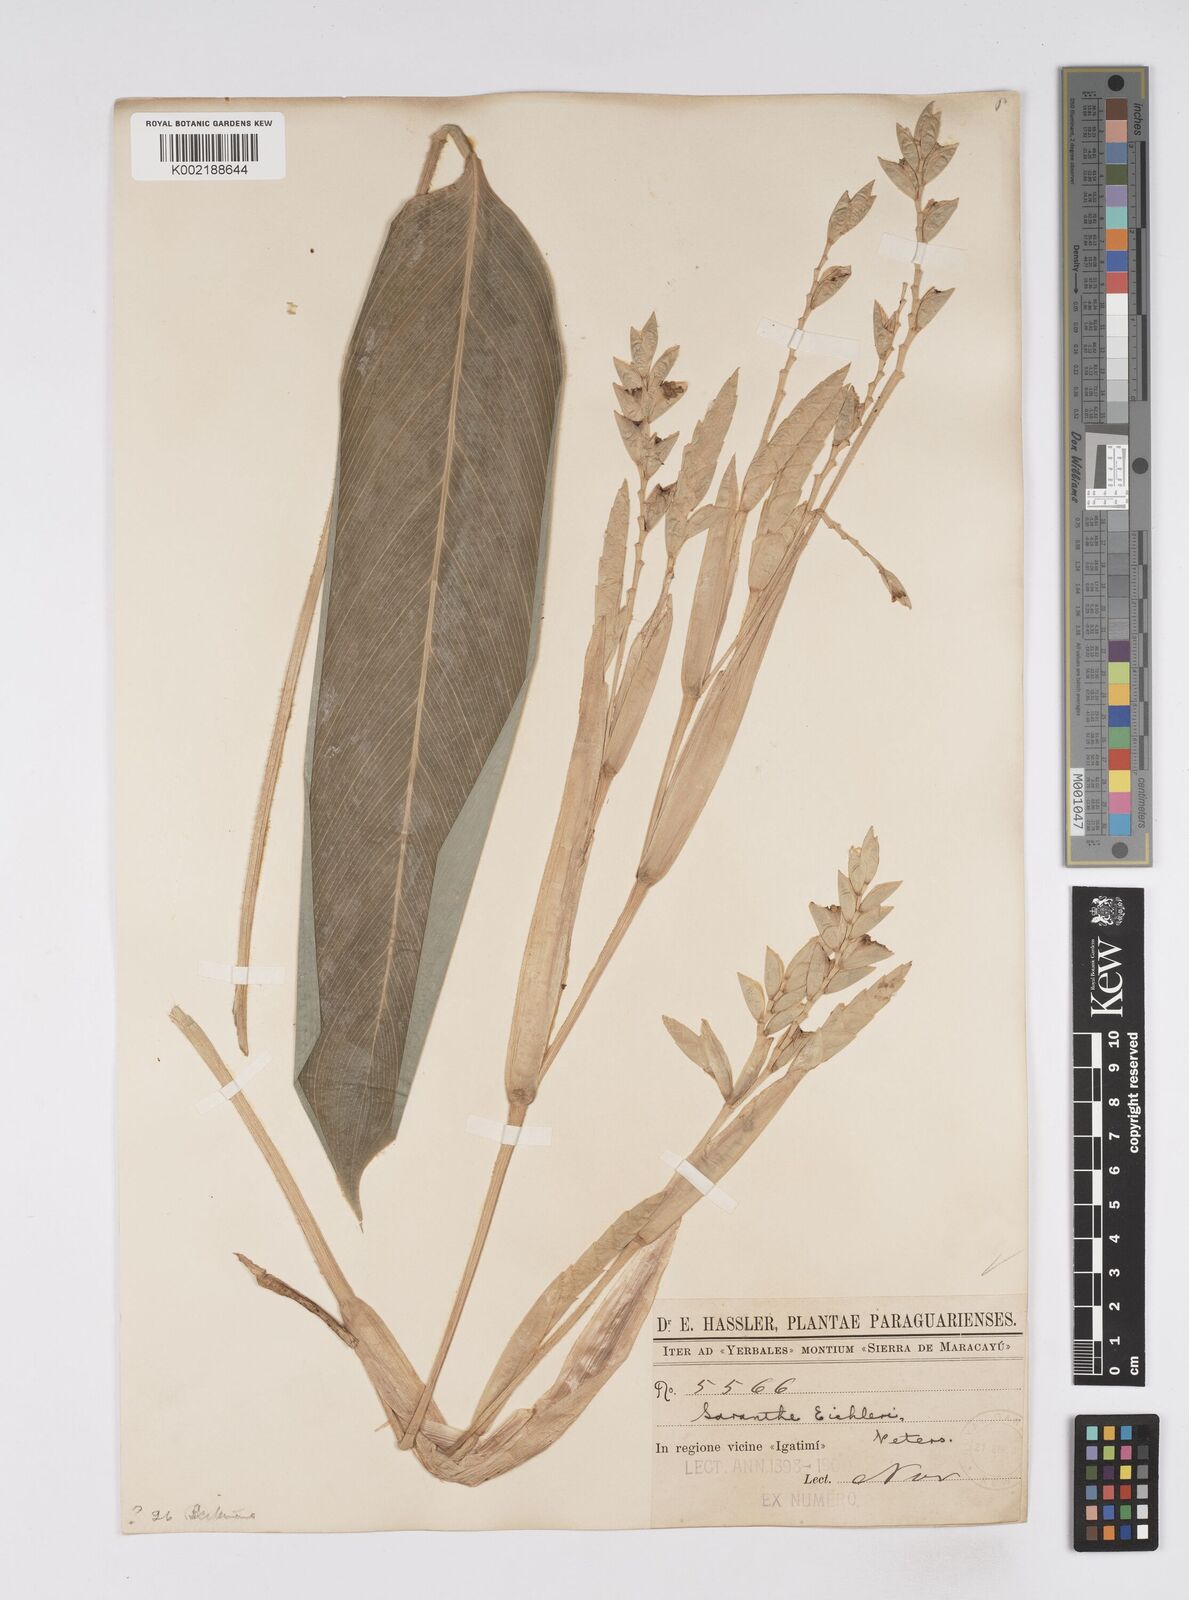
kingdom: Plantae
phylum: Tracheophyta
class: Liliopsida
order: Zingiberales
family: Marantaceae
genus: Saranthe
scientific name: Saranthe eichleri
